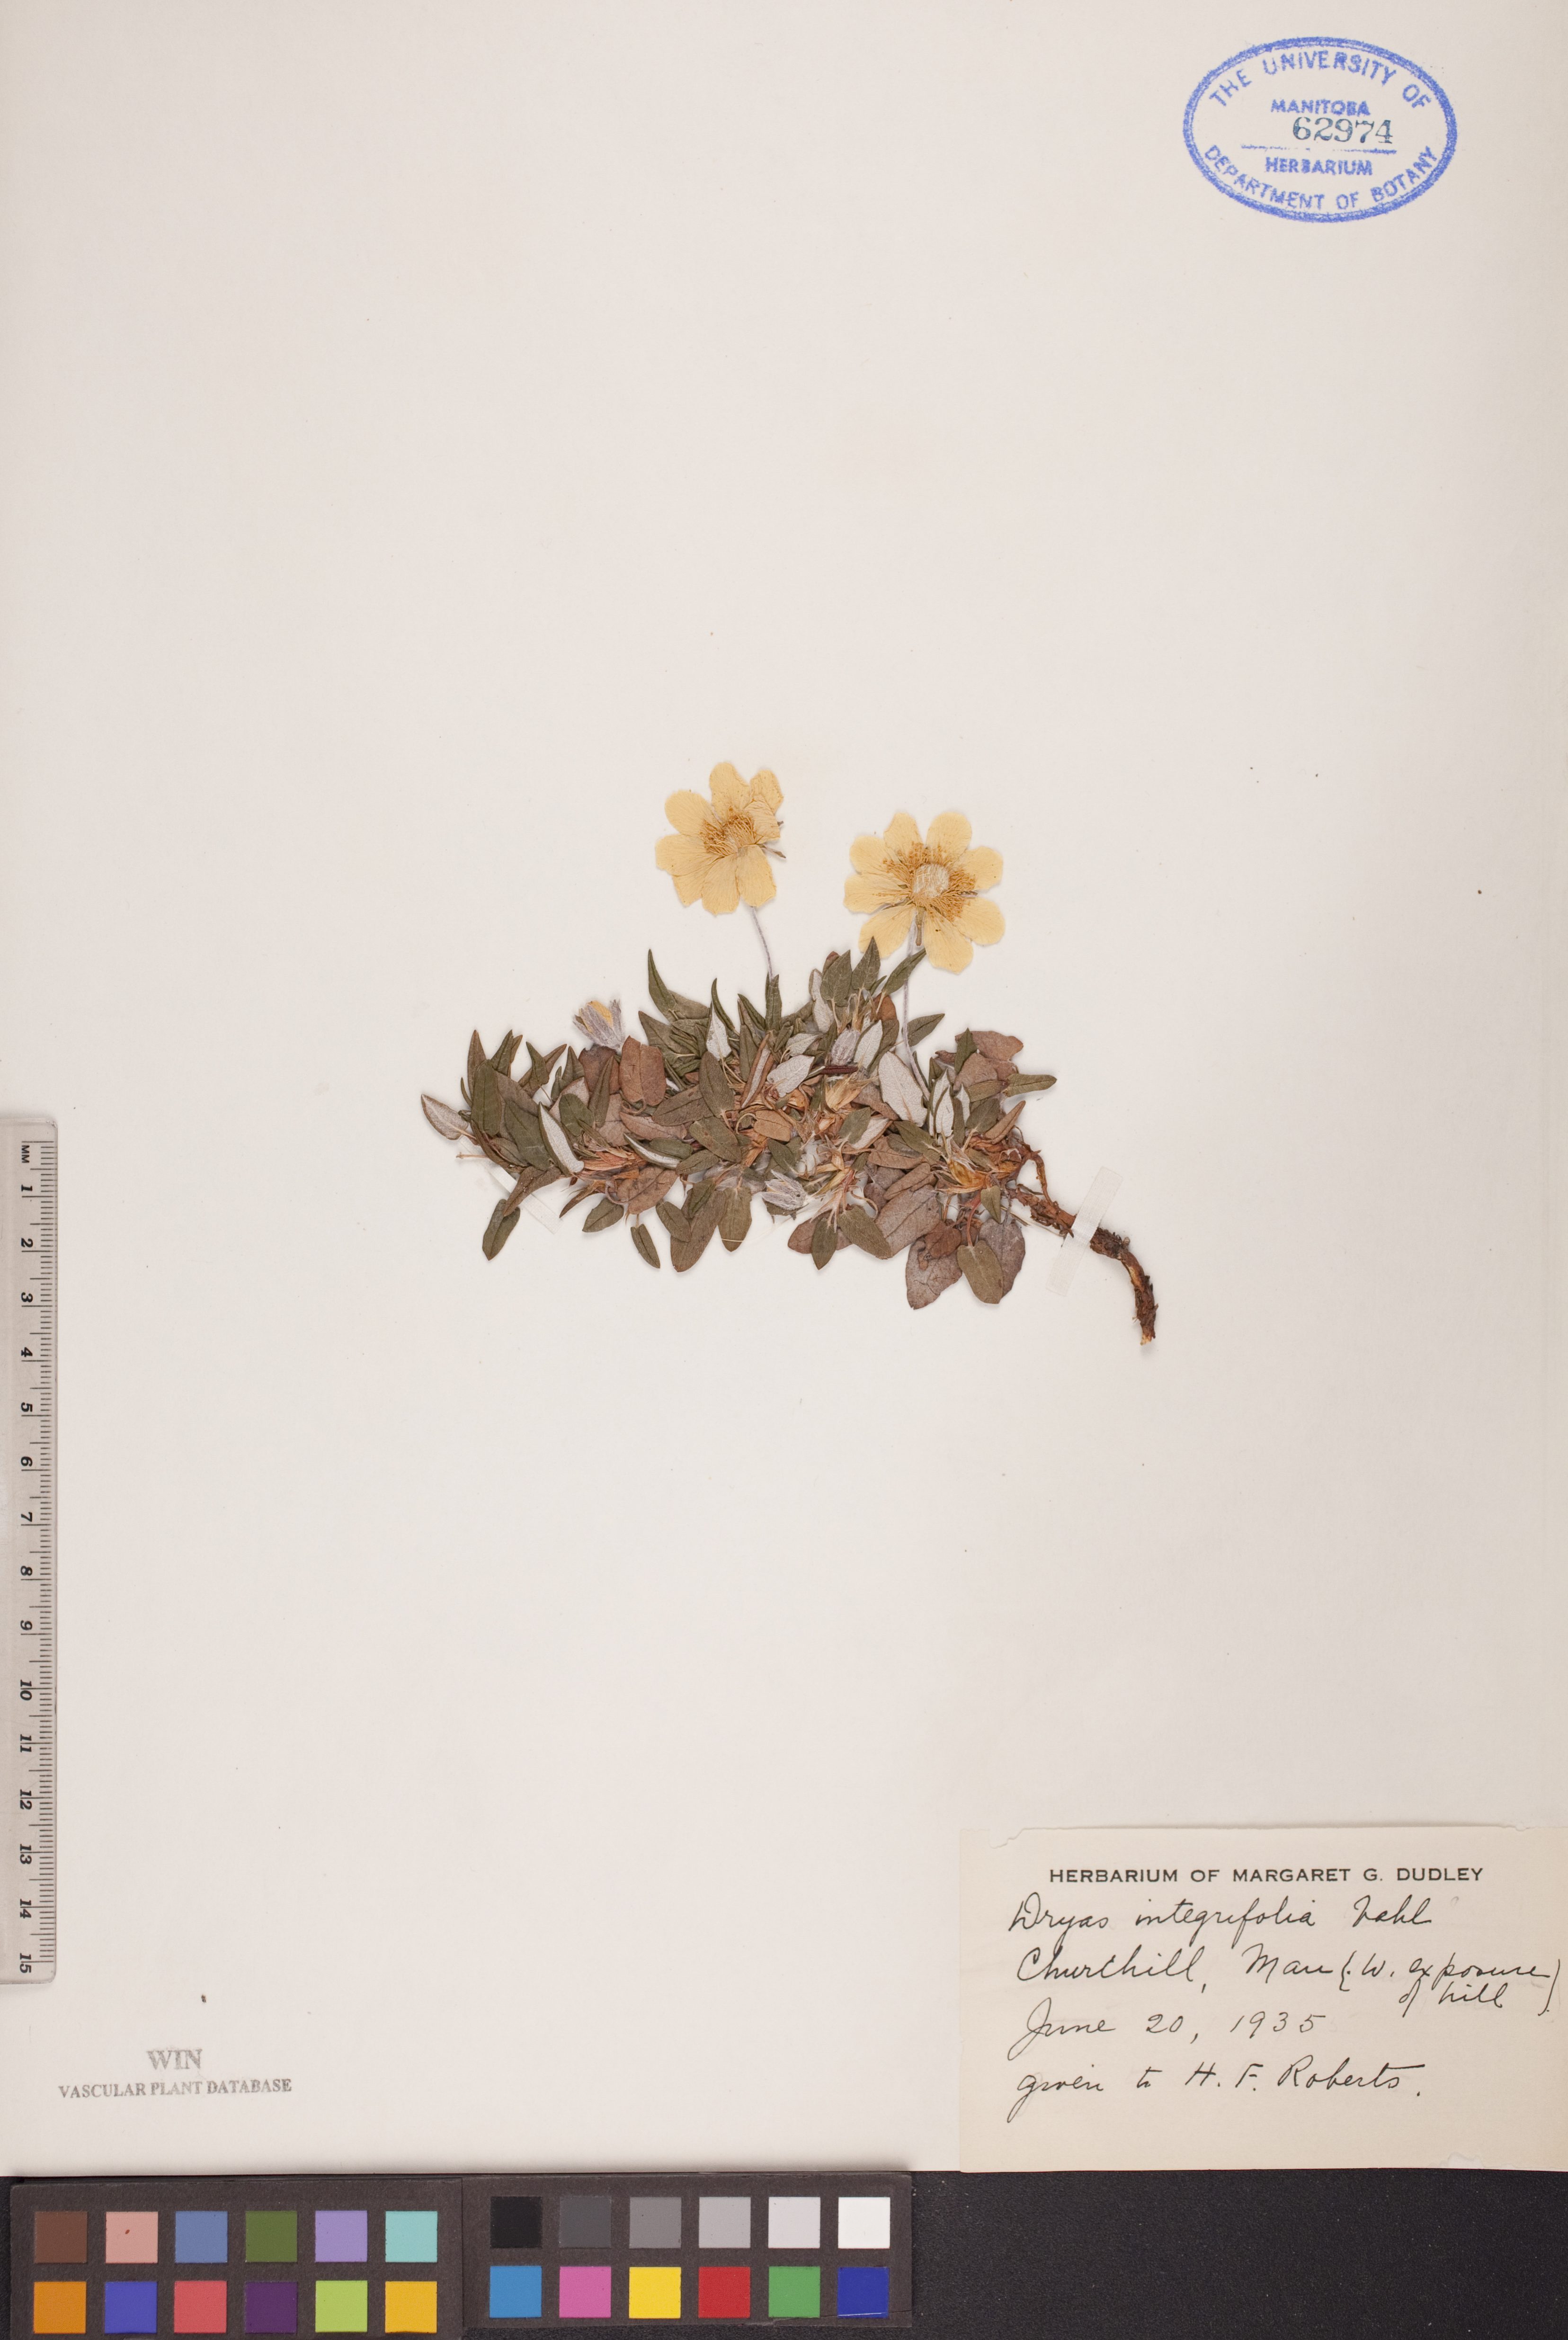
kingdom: Plantae
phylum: Tracheophyta
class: Magnoliopsida
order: Rosales
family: Rosaceae
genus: Dryas
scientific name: Dryas integrifolia
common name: Entire-leaved mountain avens
